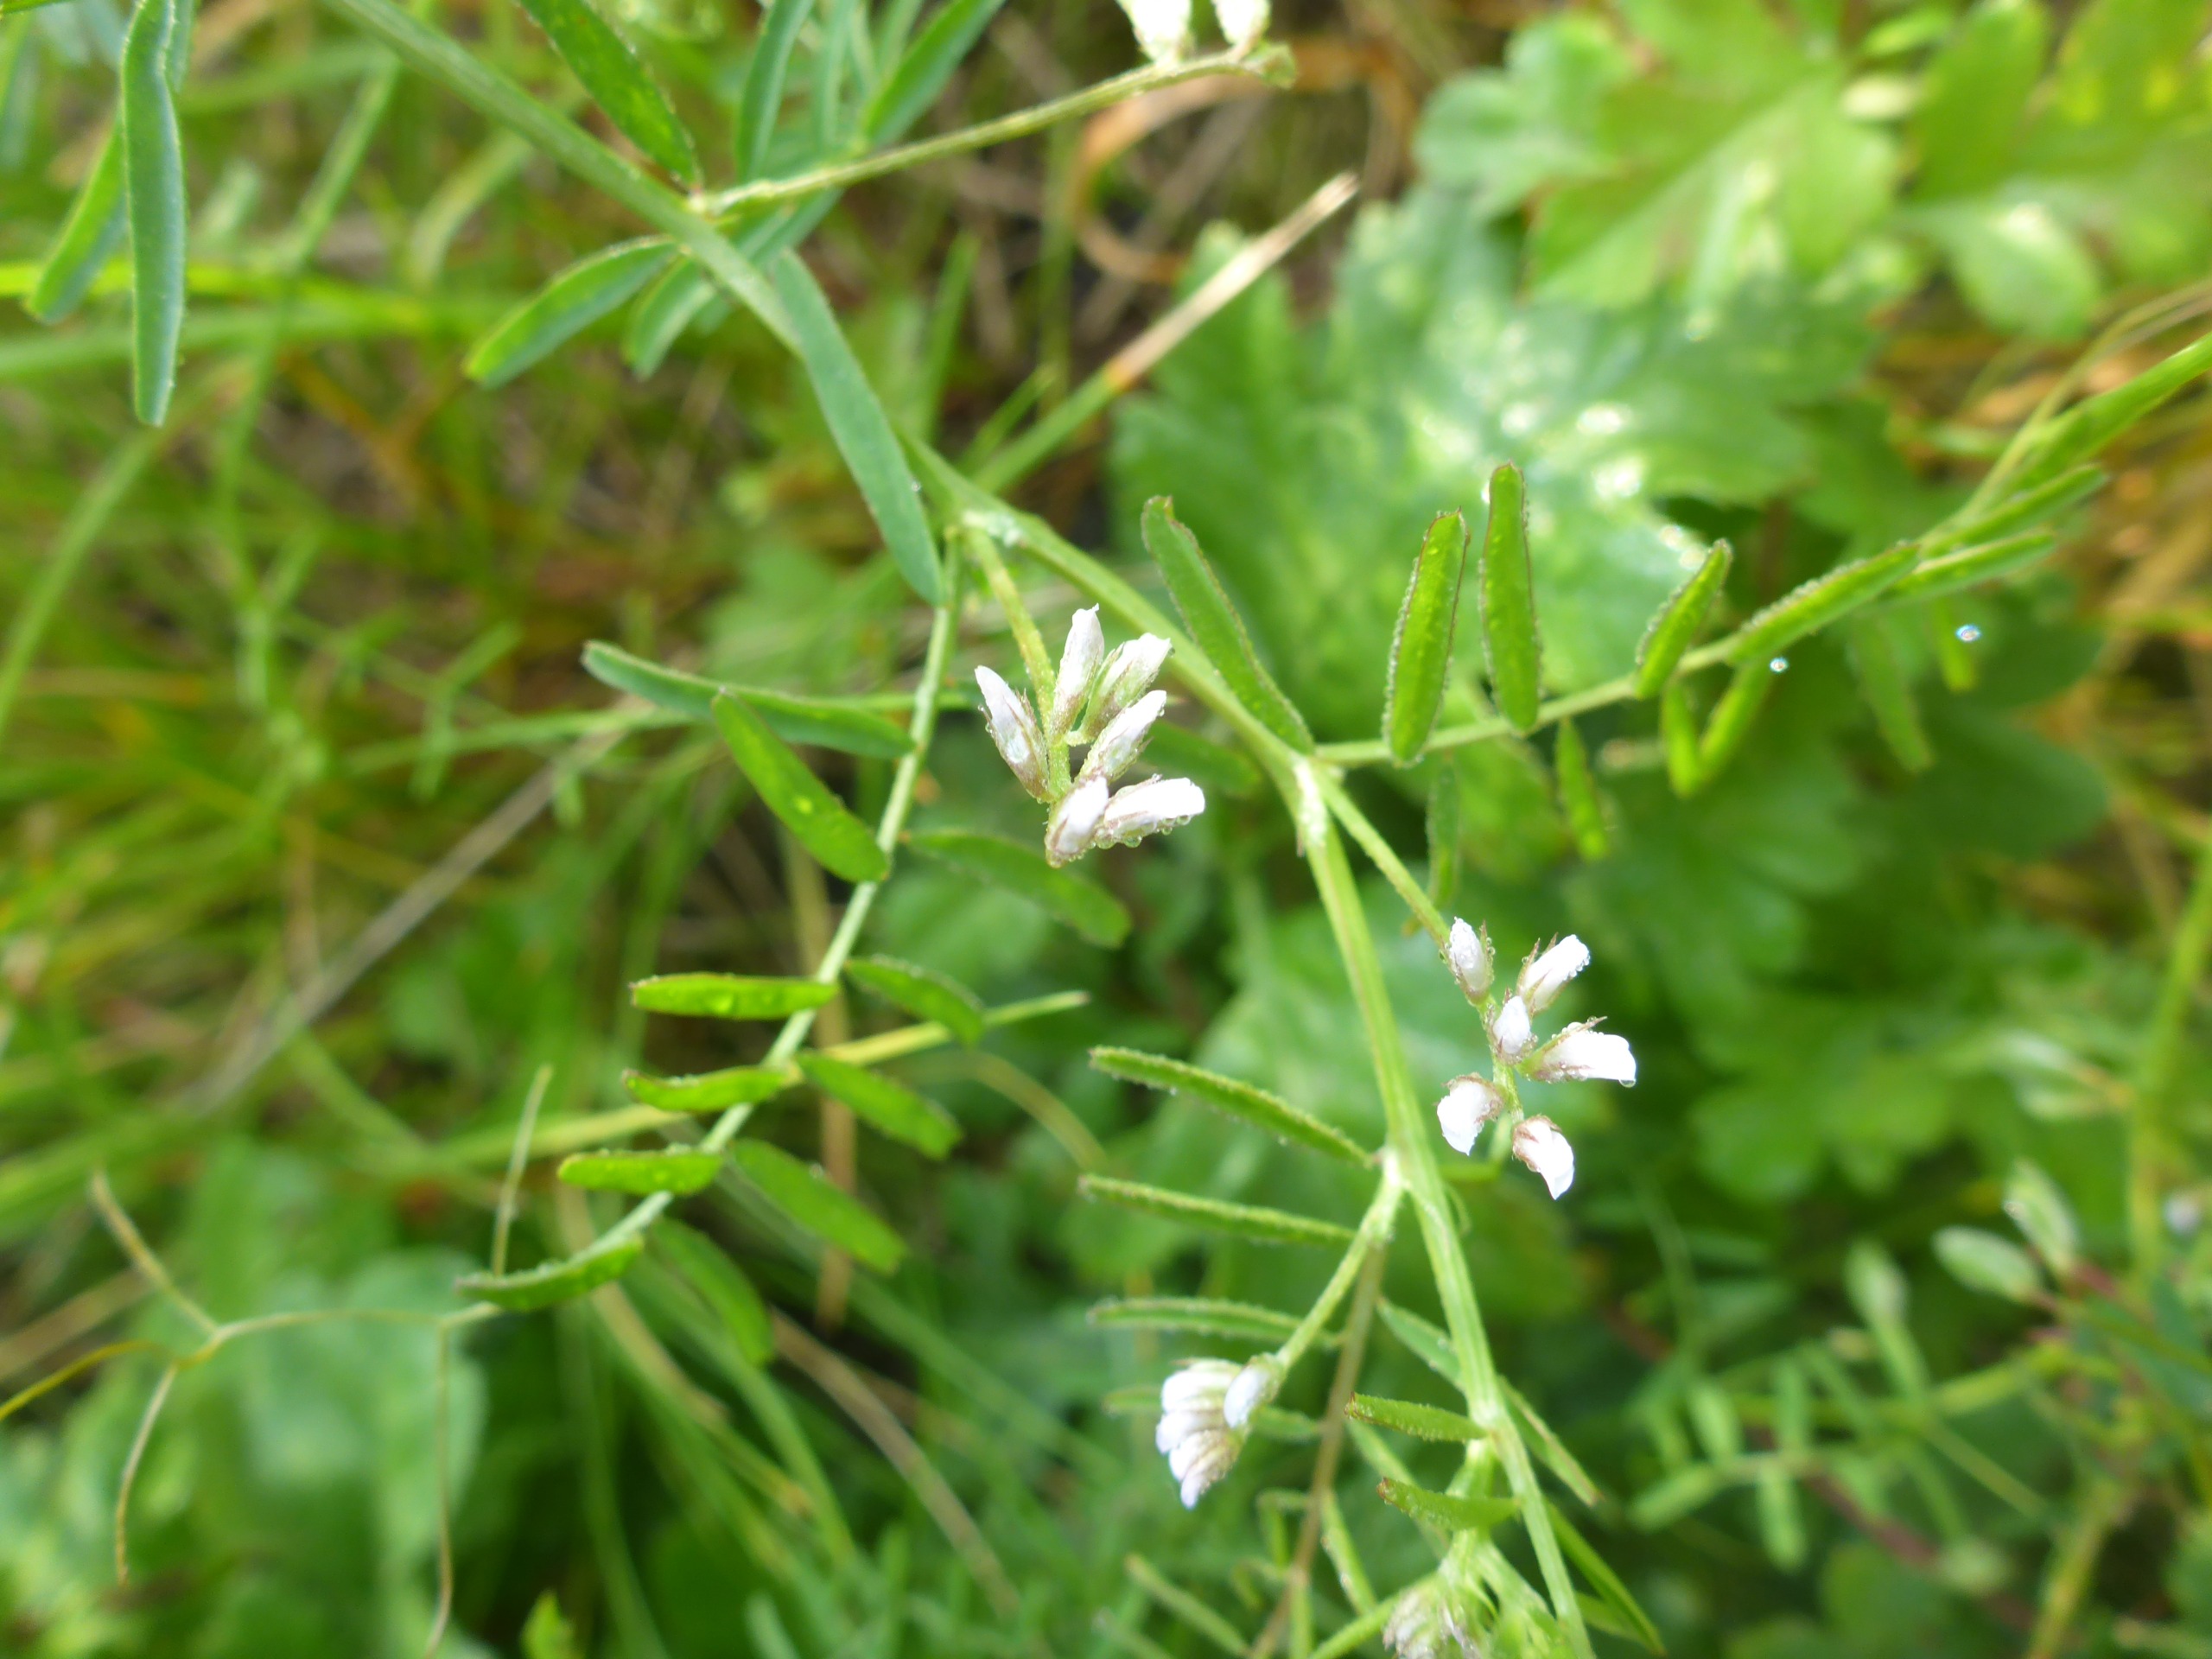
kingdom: Plantae
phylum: Tracheophyta
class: Magnoliopsida
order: Fabales
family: Fabaceae
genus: Vicia
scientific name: Vicia hirsuta
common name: Tofrøet vikke
